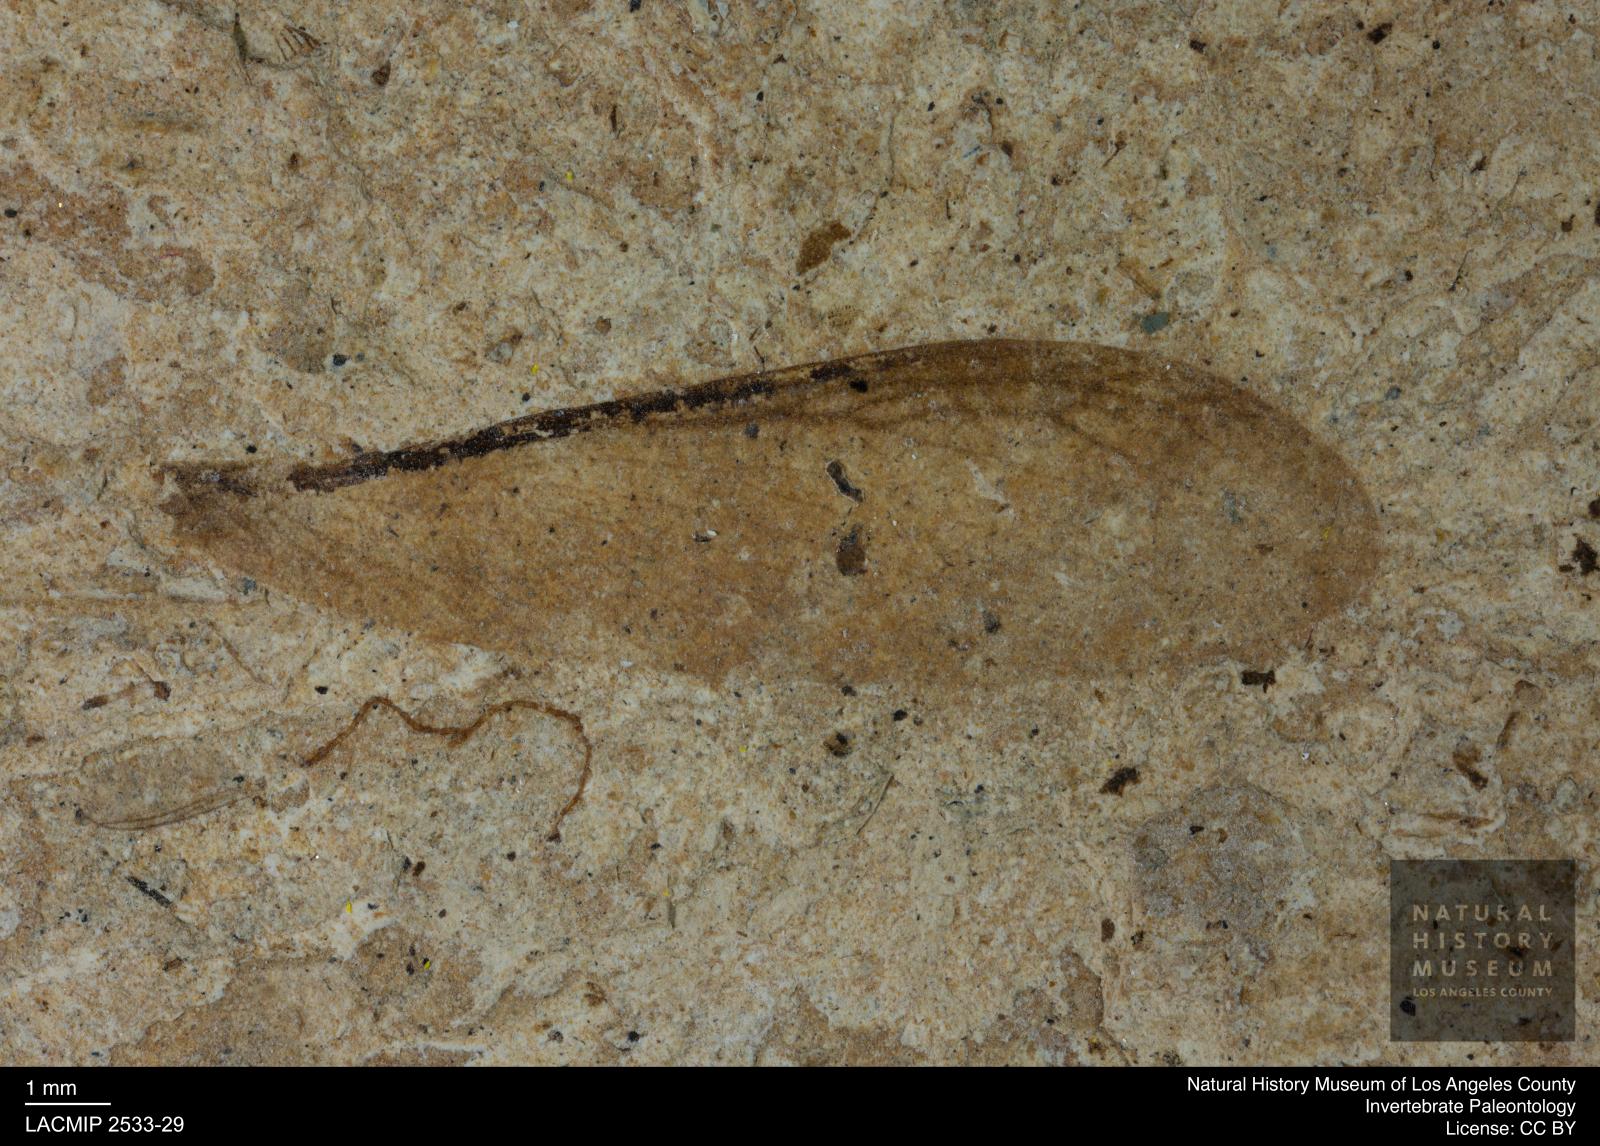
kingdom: Animalia
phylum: Arthropoda
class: Insecta
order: Blattodea
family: Hodotermitidae
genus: Ulmeriella
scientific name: Ulmeriella bauckhorni
